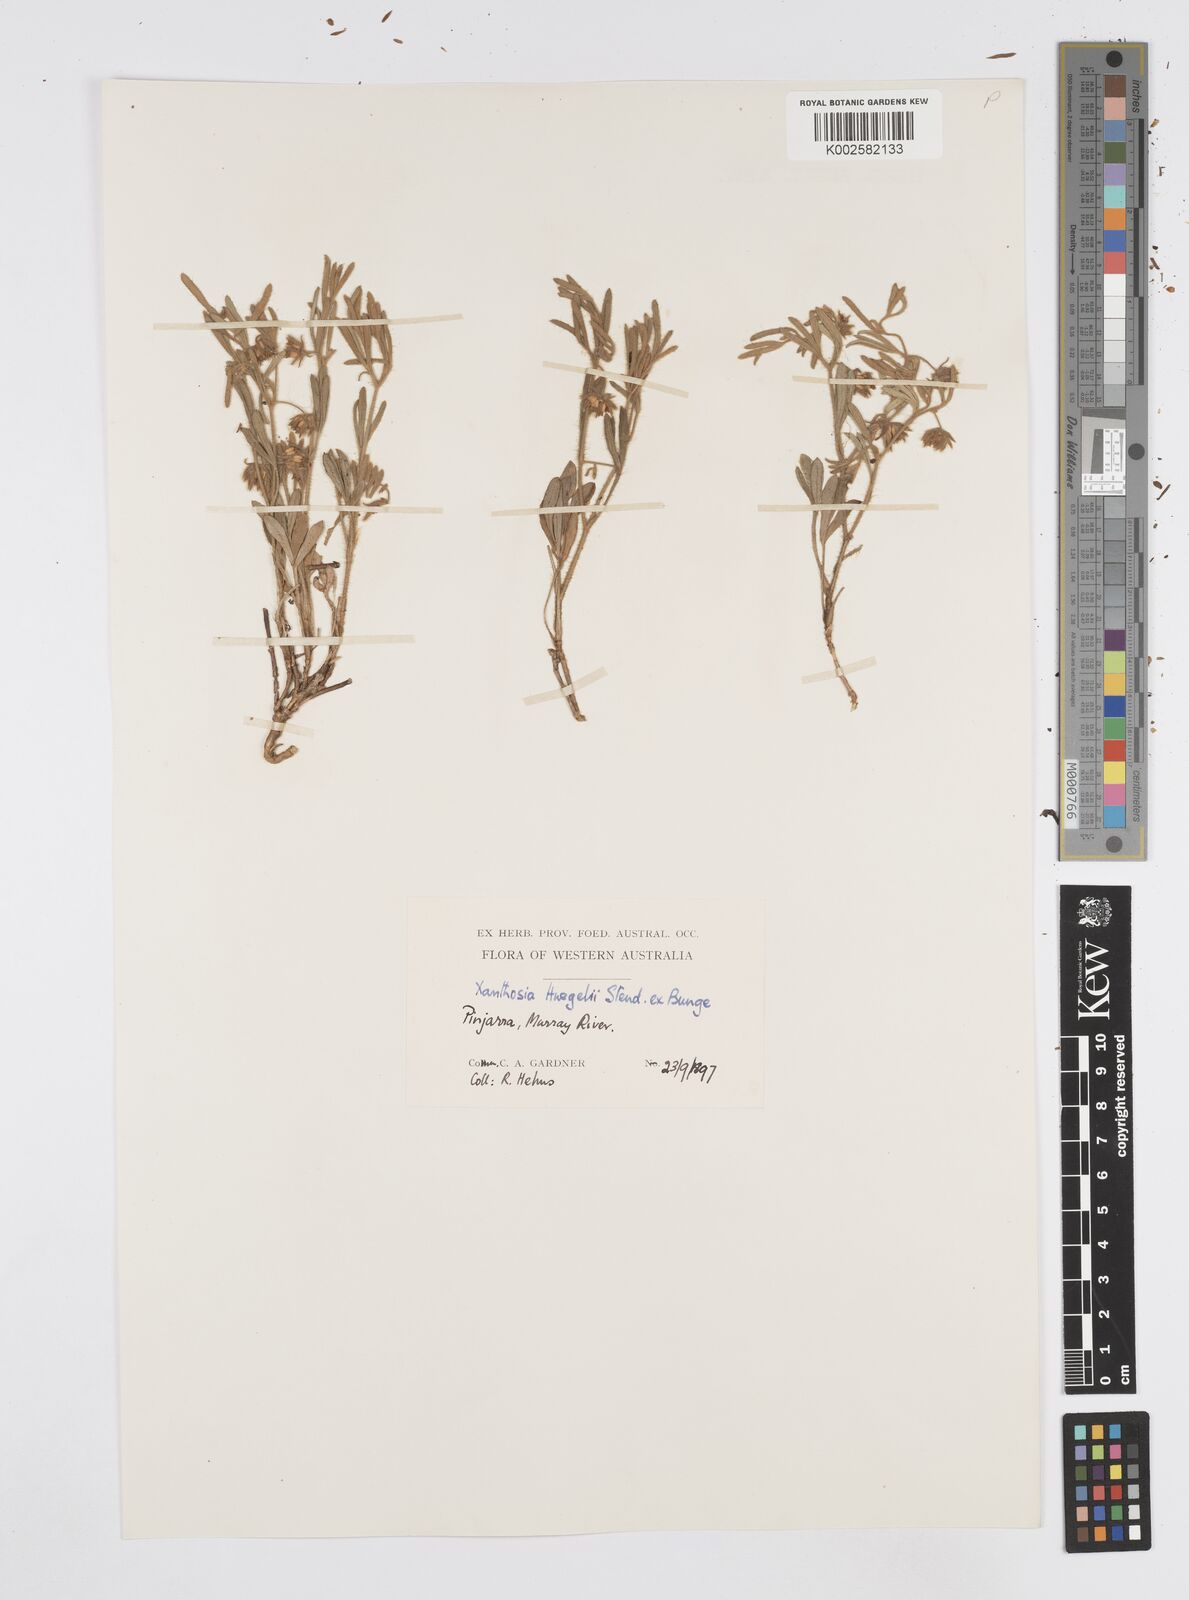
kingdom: Plantae
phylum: Tracheophyta
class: Magnoliopsida
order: Apiales
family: Apiaceae
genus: Xanthosia
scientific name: Xanthosia huegelii
